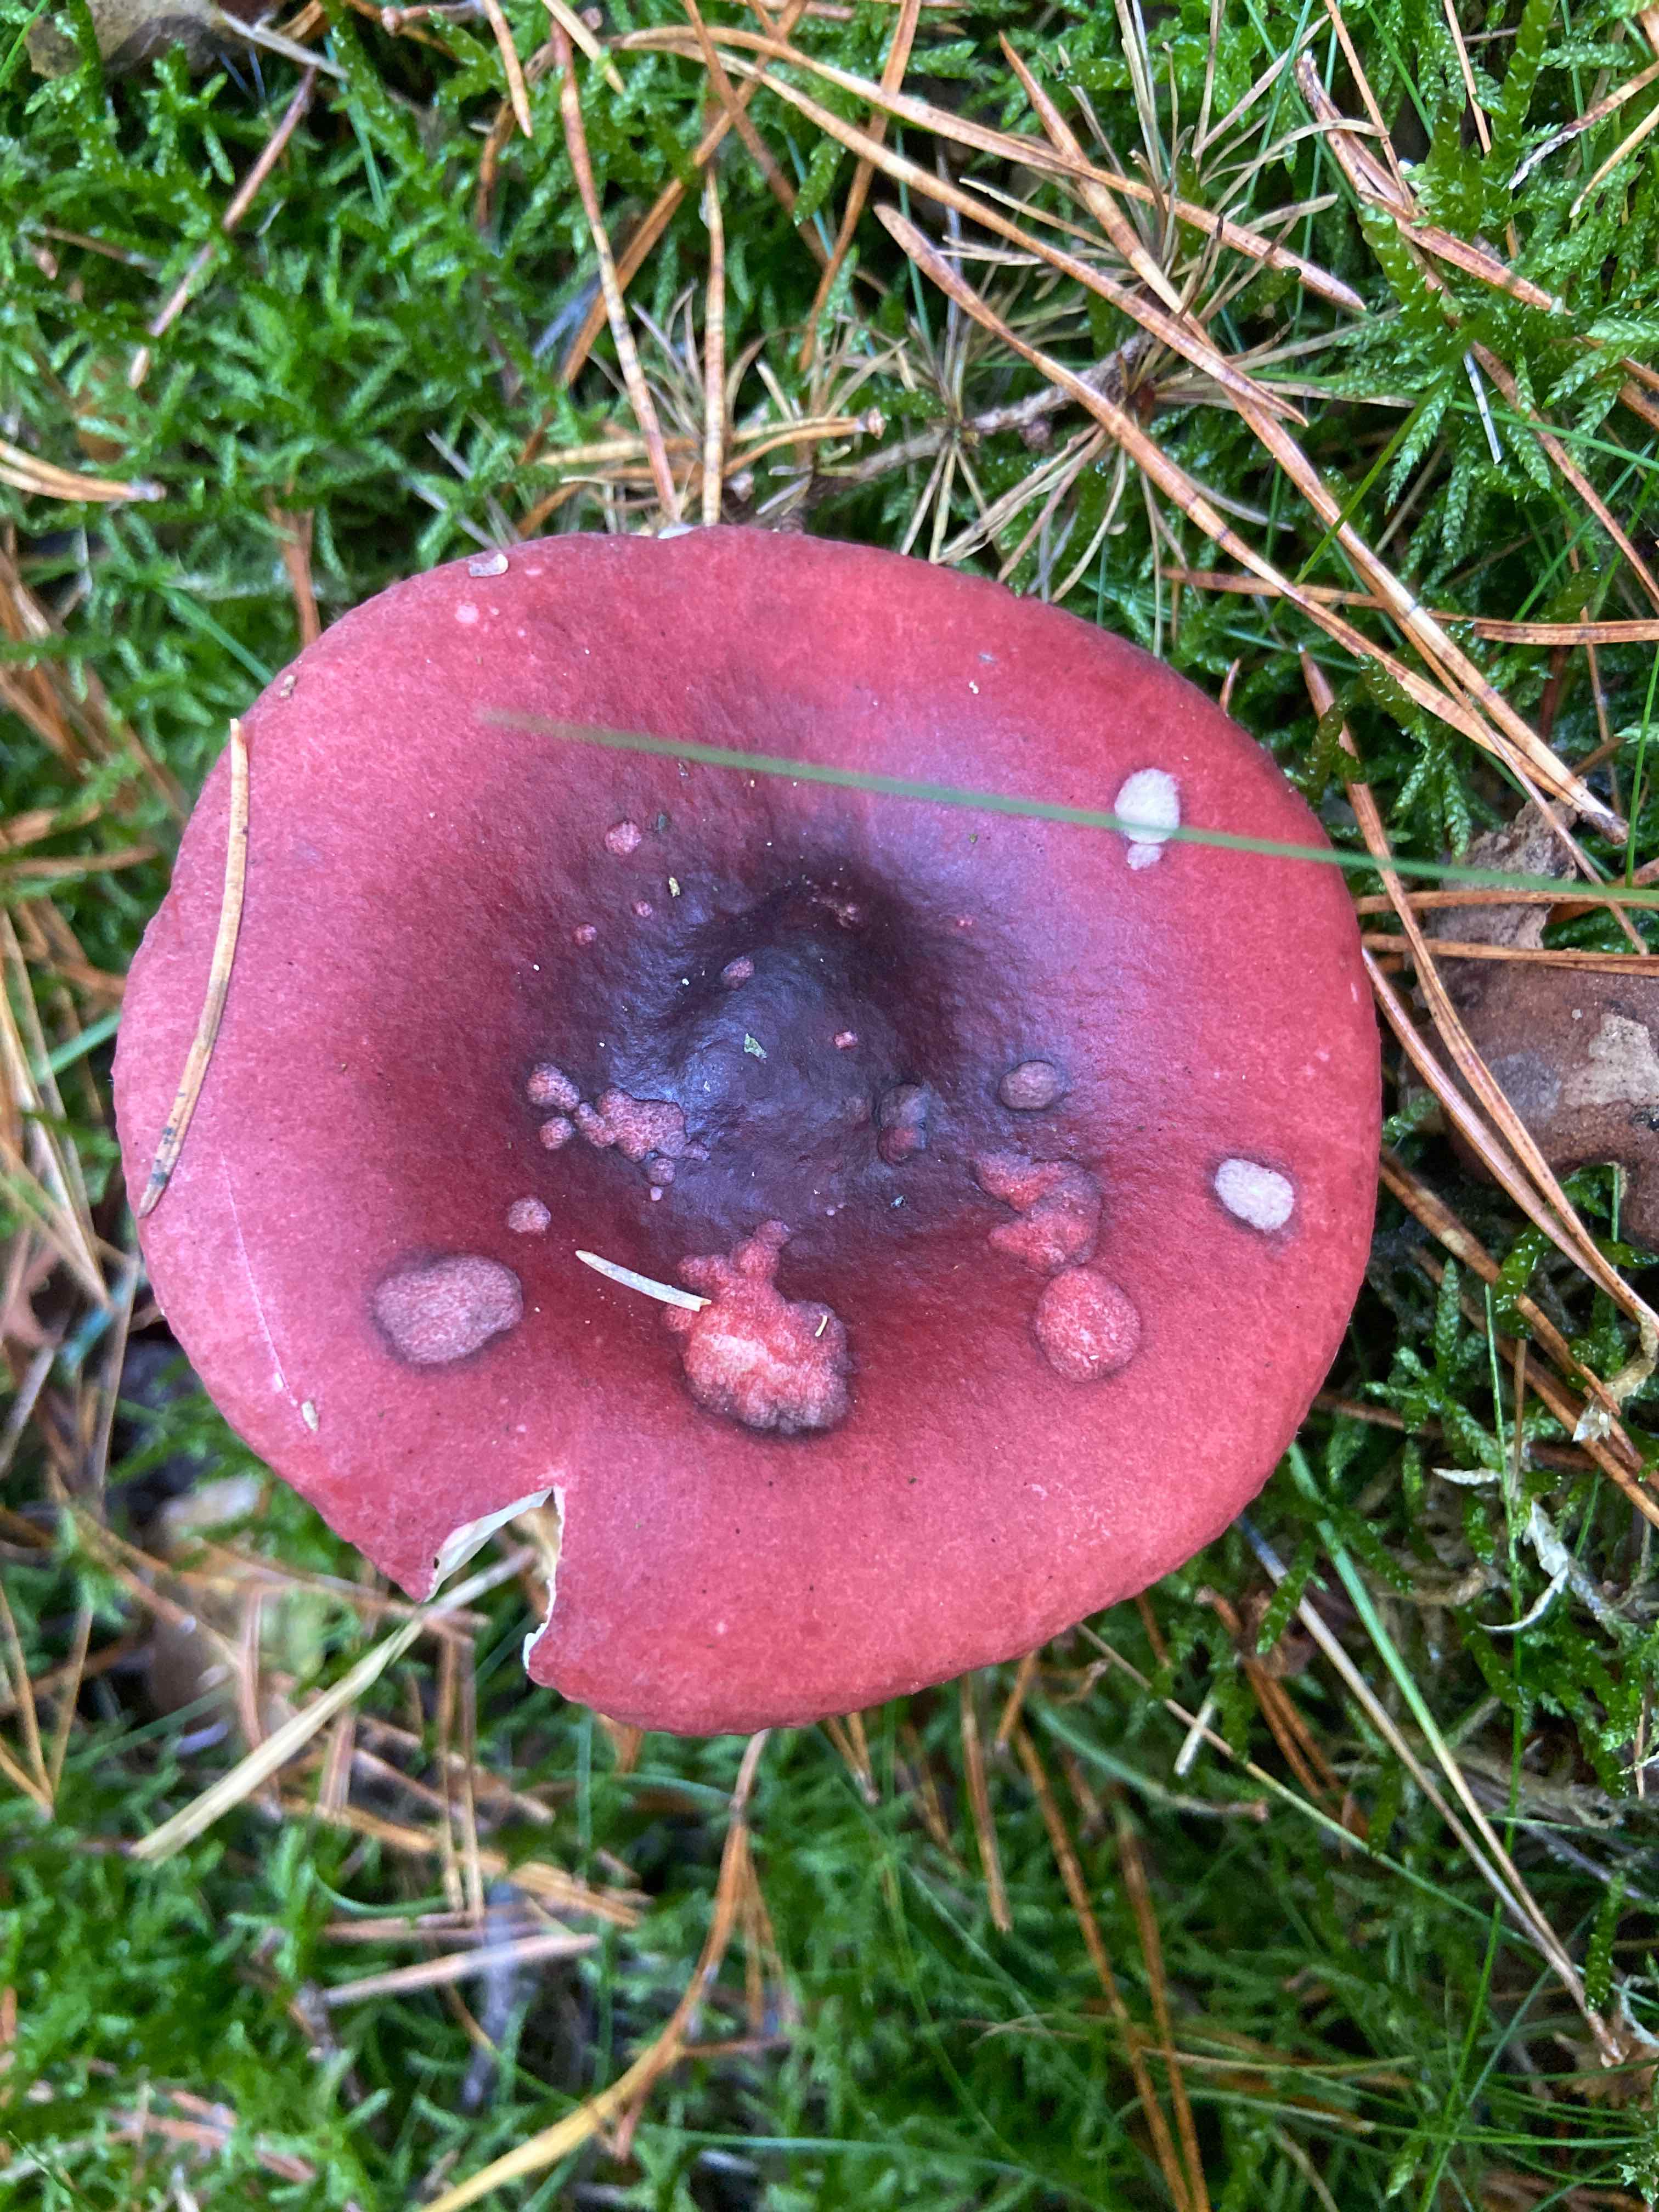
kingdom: Fungi
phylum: Basidiomycota
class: Agaricomycetes
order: Russulales
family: Russulaceae
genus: Russula
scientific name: Russula
